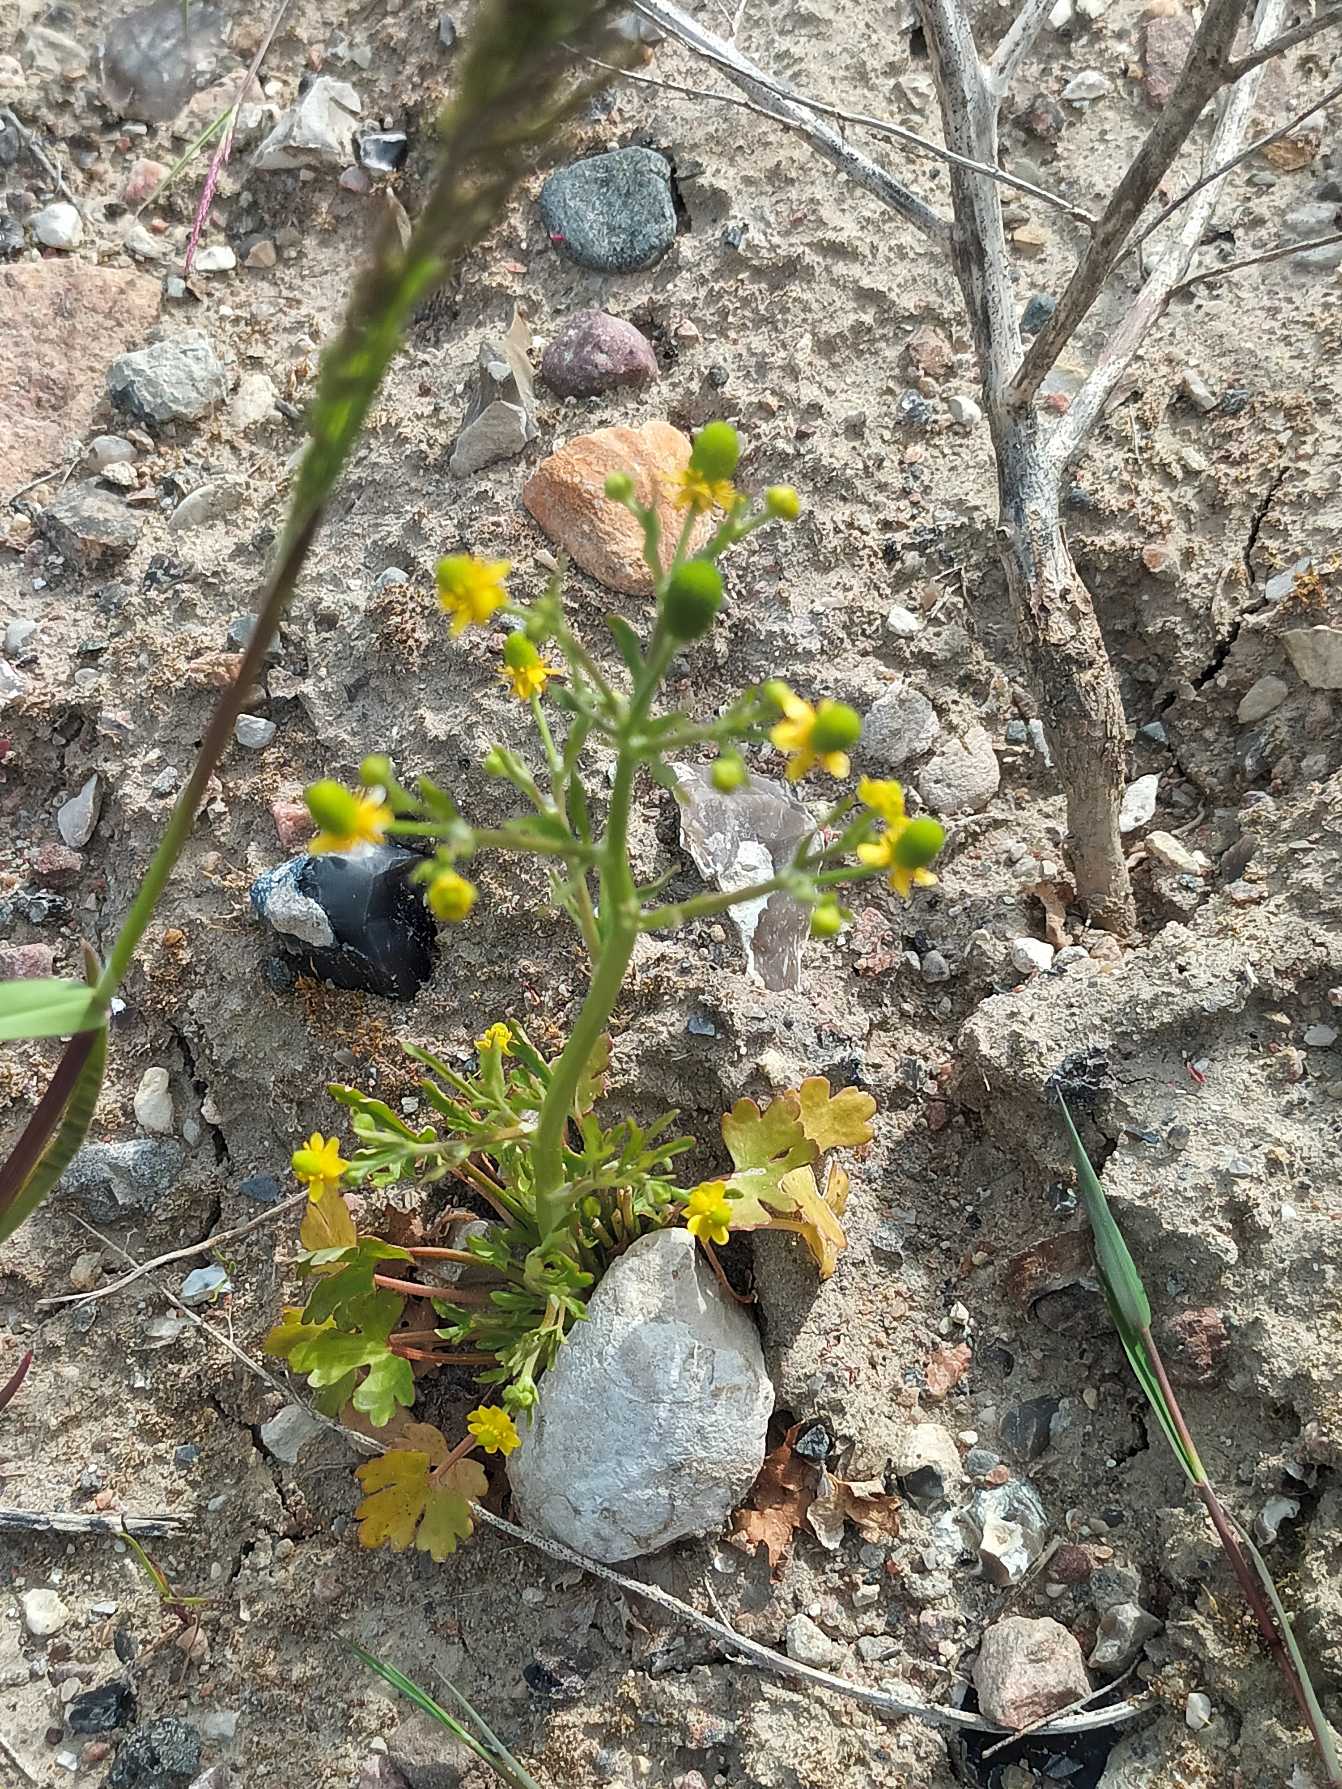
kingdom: Plantae
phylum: Tracheophyta
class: Magnoliopsida
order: Ranunculales
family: Ranunculaceae
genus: Ranunculus
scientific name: Ranunculus sceleratus
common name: Tigger-ranunkel
